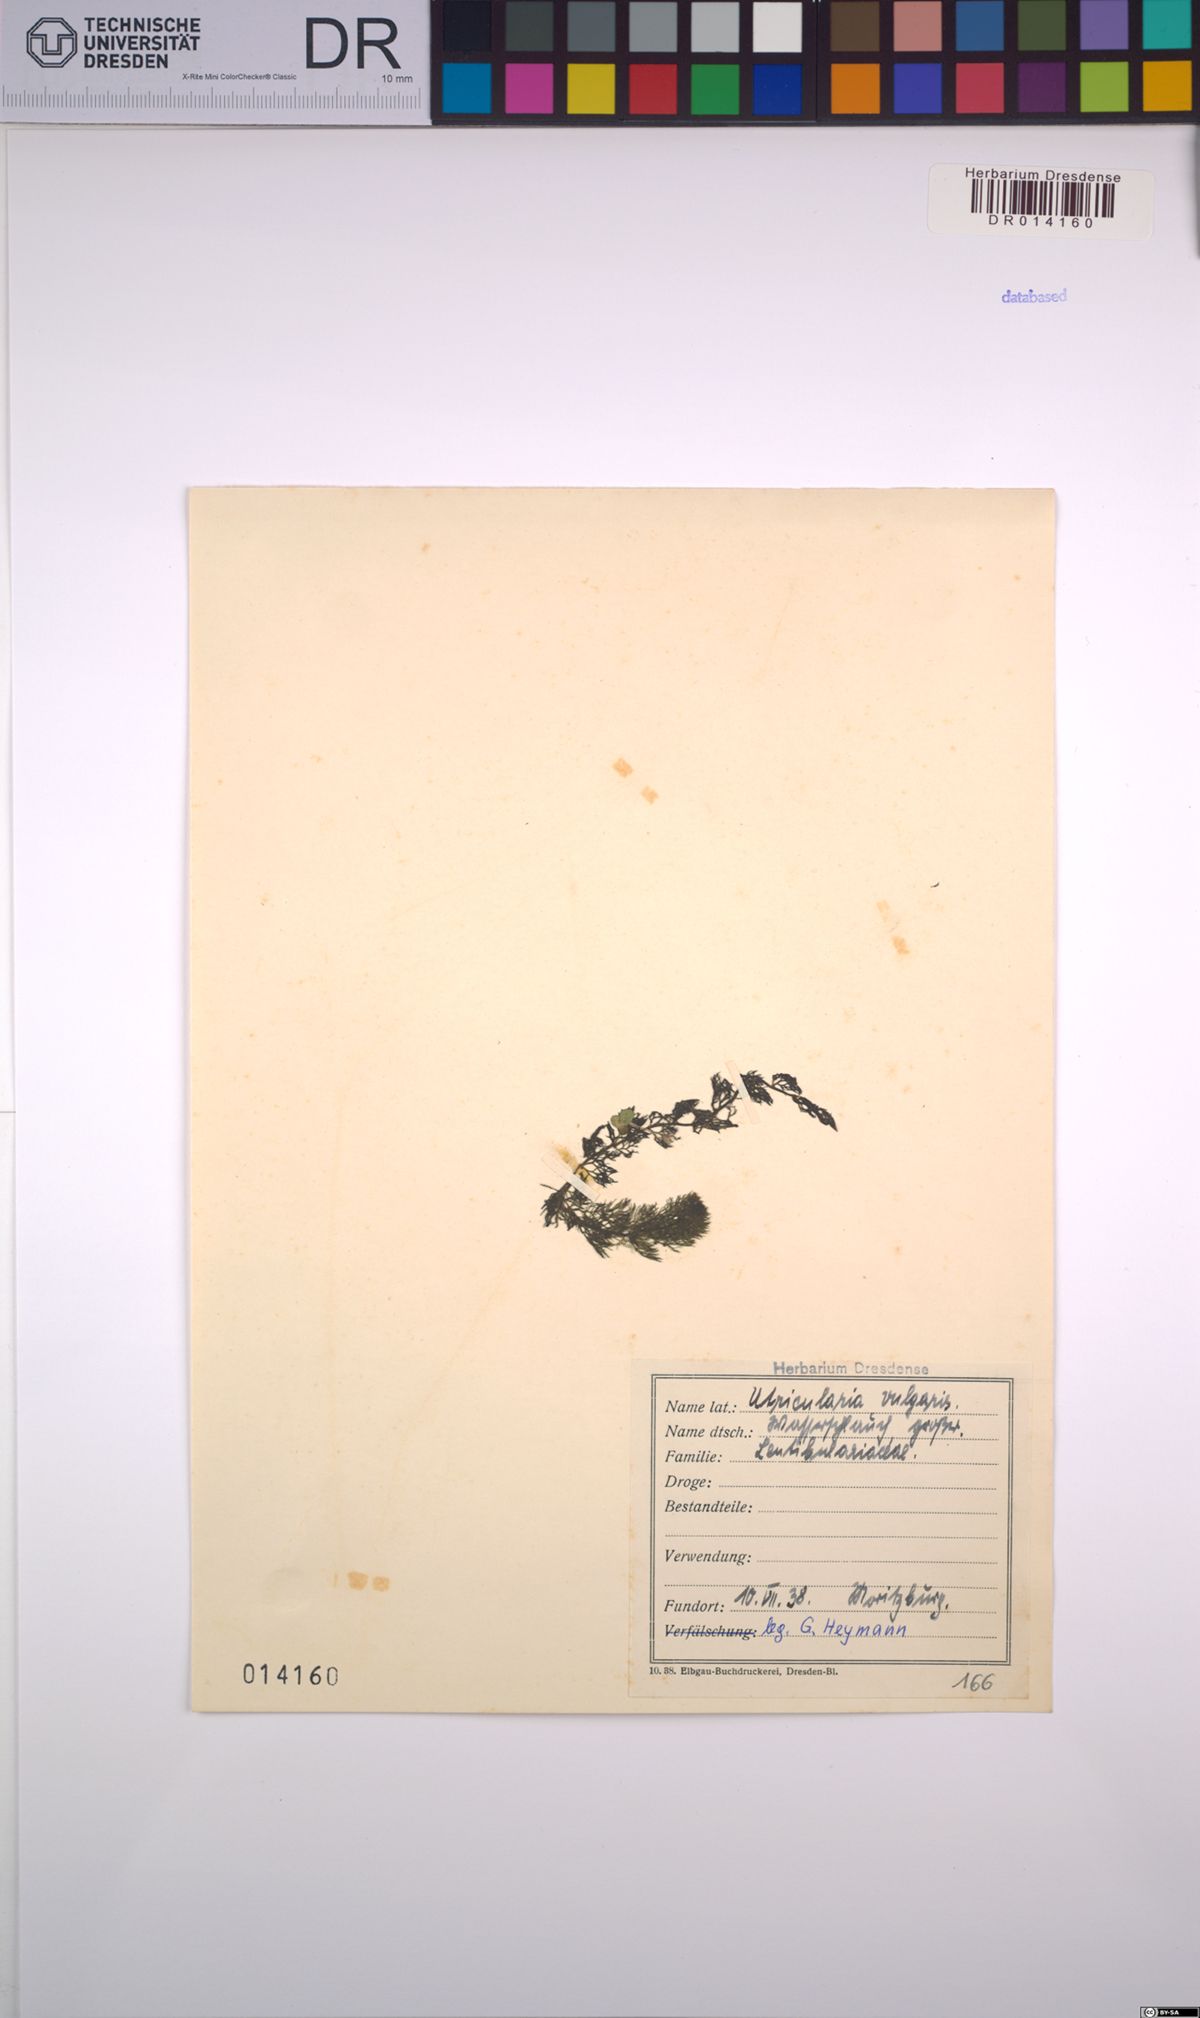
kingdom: Plantae
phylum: Tracheophyta
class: Magnoliopsida
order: Lamiales
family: Lentibulariaceae
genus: Utricularia
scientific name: Utricularia vulgaris
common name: Greater bladderwort
